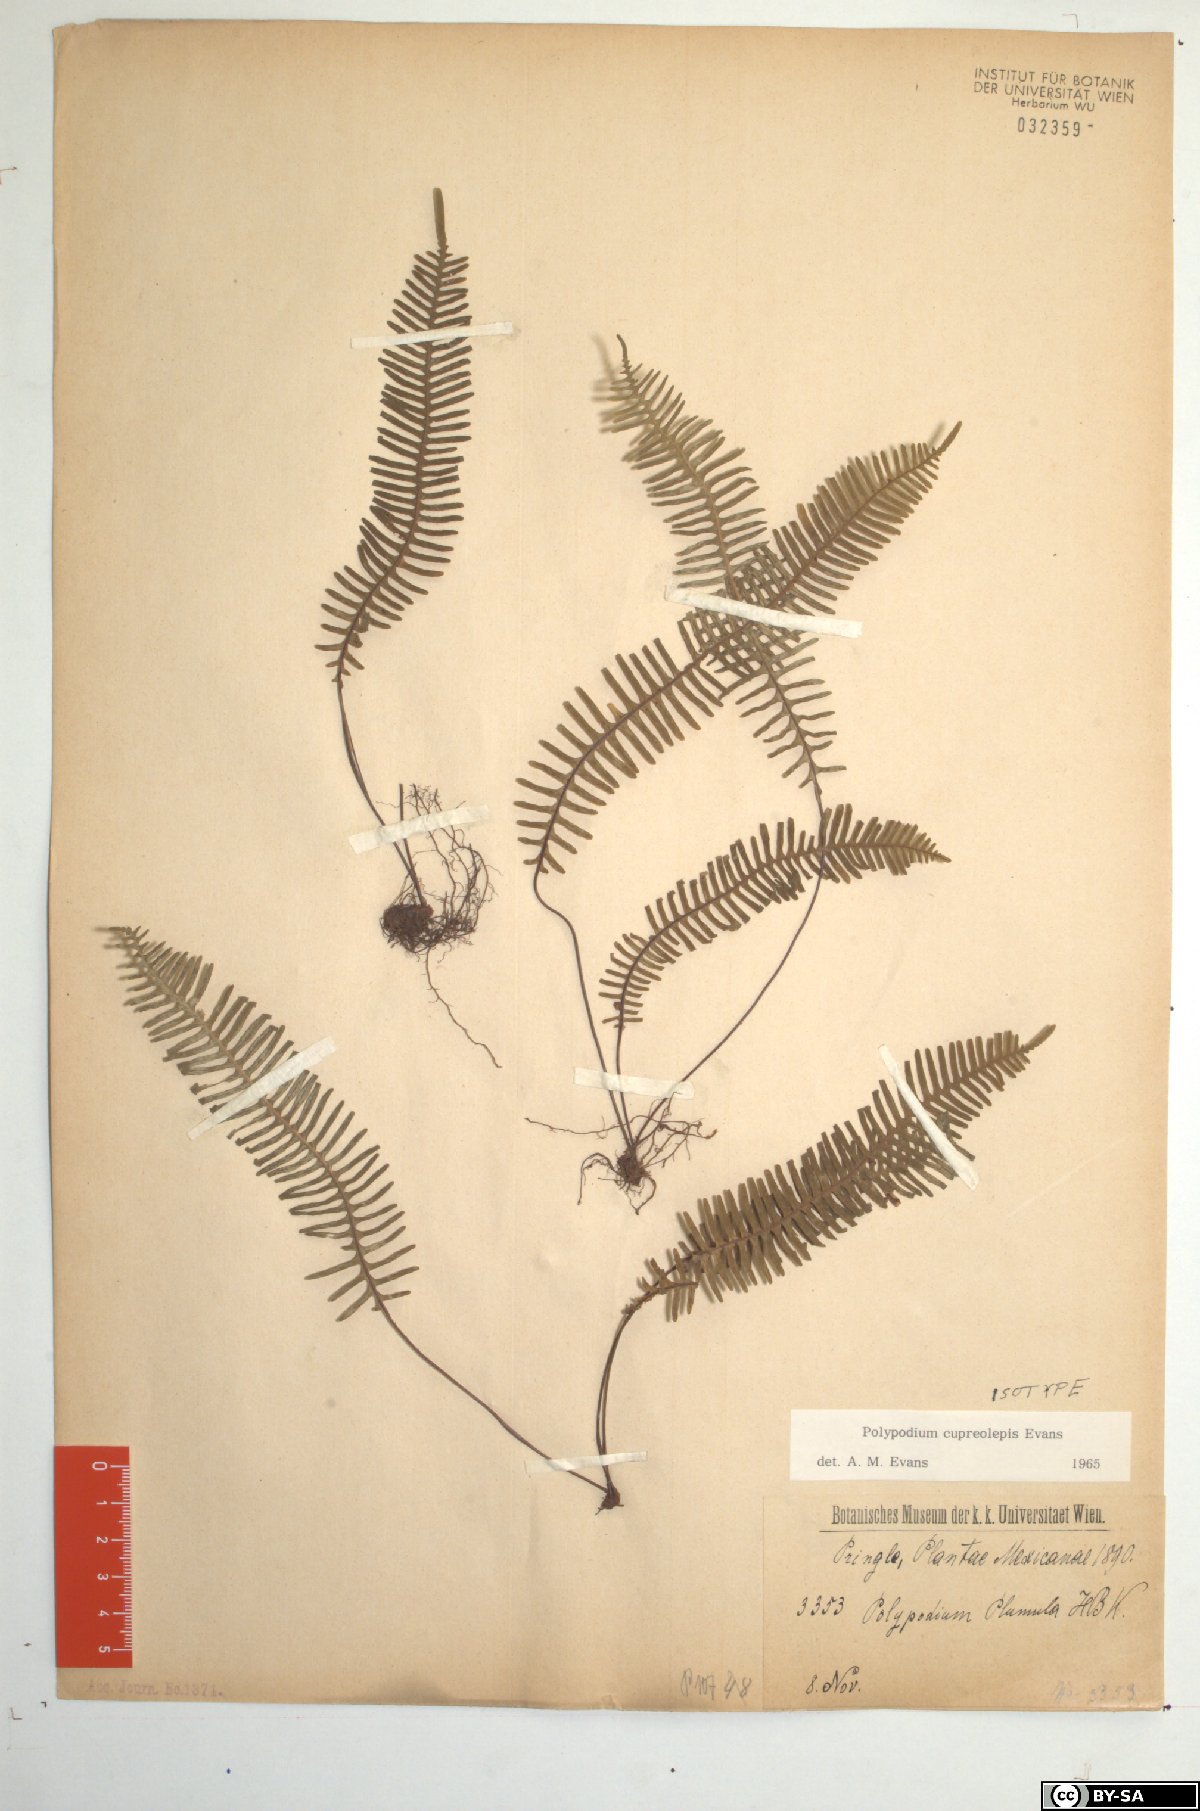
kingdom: Plantae
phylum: Tracheophyta
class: Polypodiopsida
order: Polypodiales
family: Polypodiaceae
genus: Pecluma
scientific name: Pecluma alfredii
